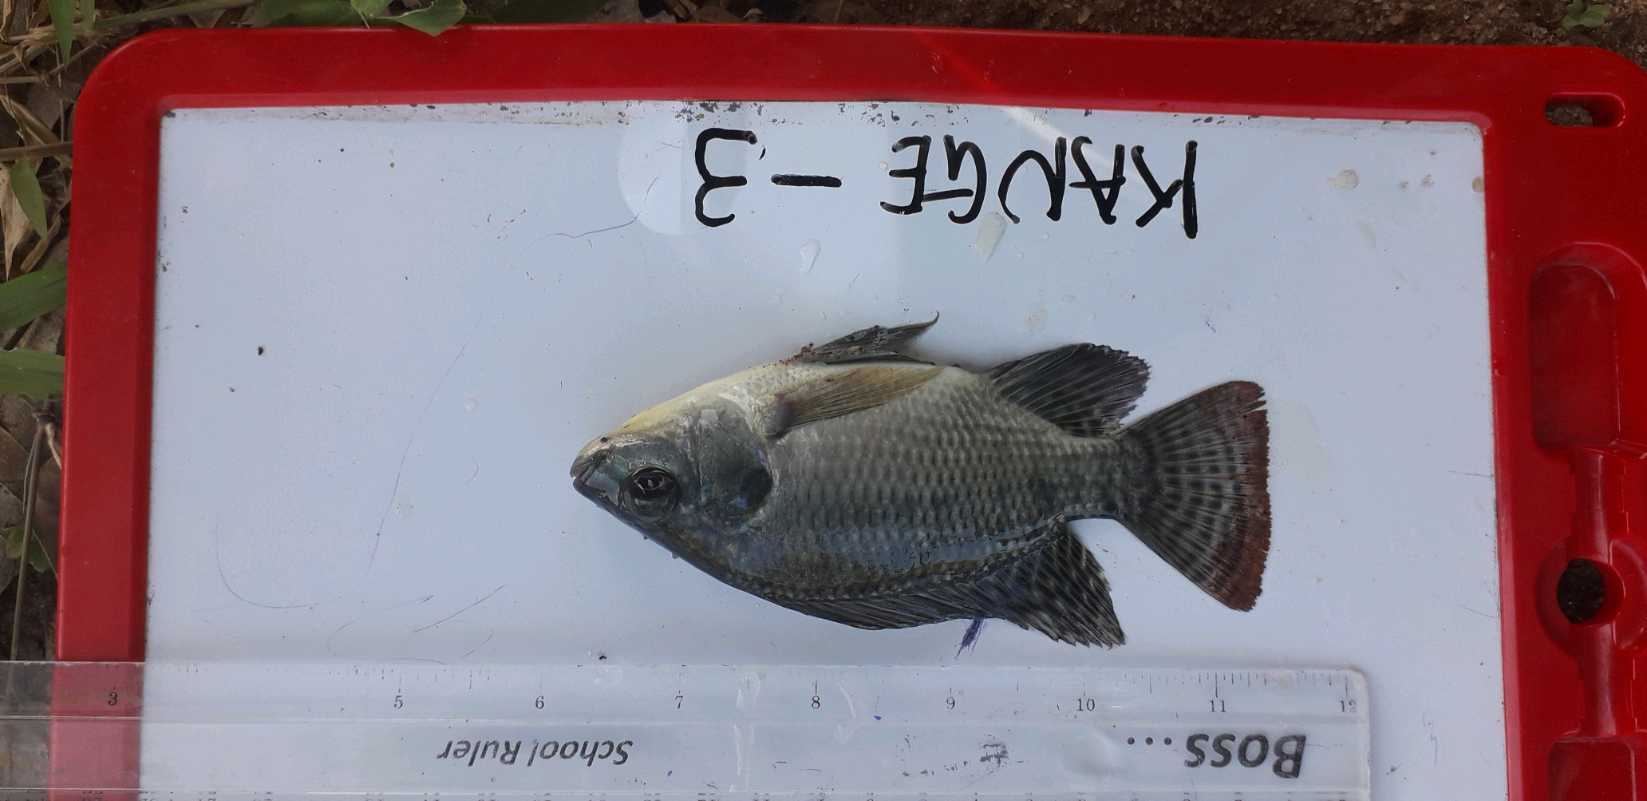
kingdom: Animalia
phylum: Chordata
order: Perciformes
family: Cichlidae
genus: Oreochromis
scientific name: Oreochromis niloticus
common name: Nile tilapia
